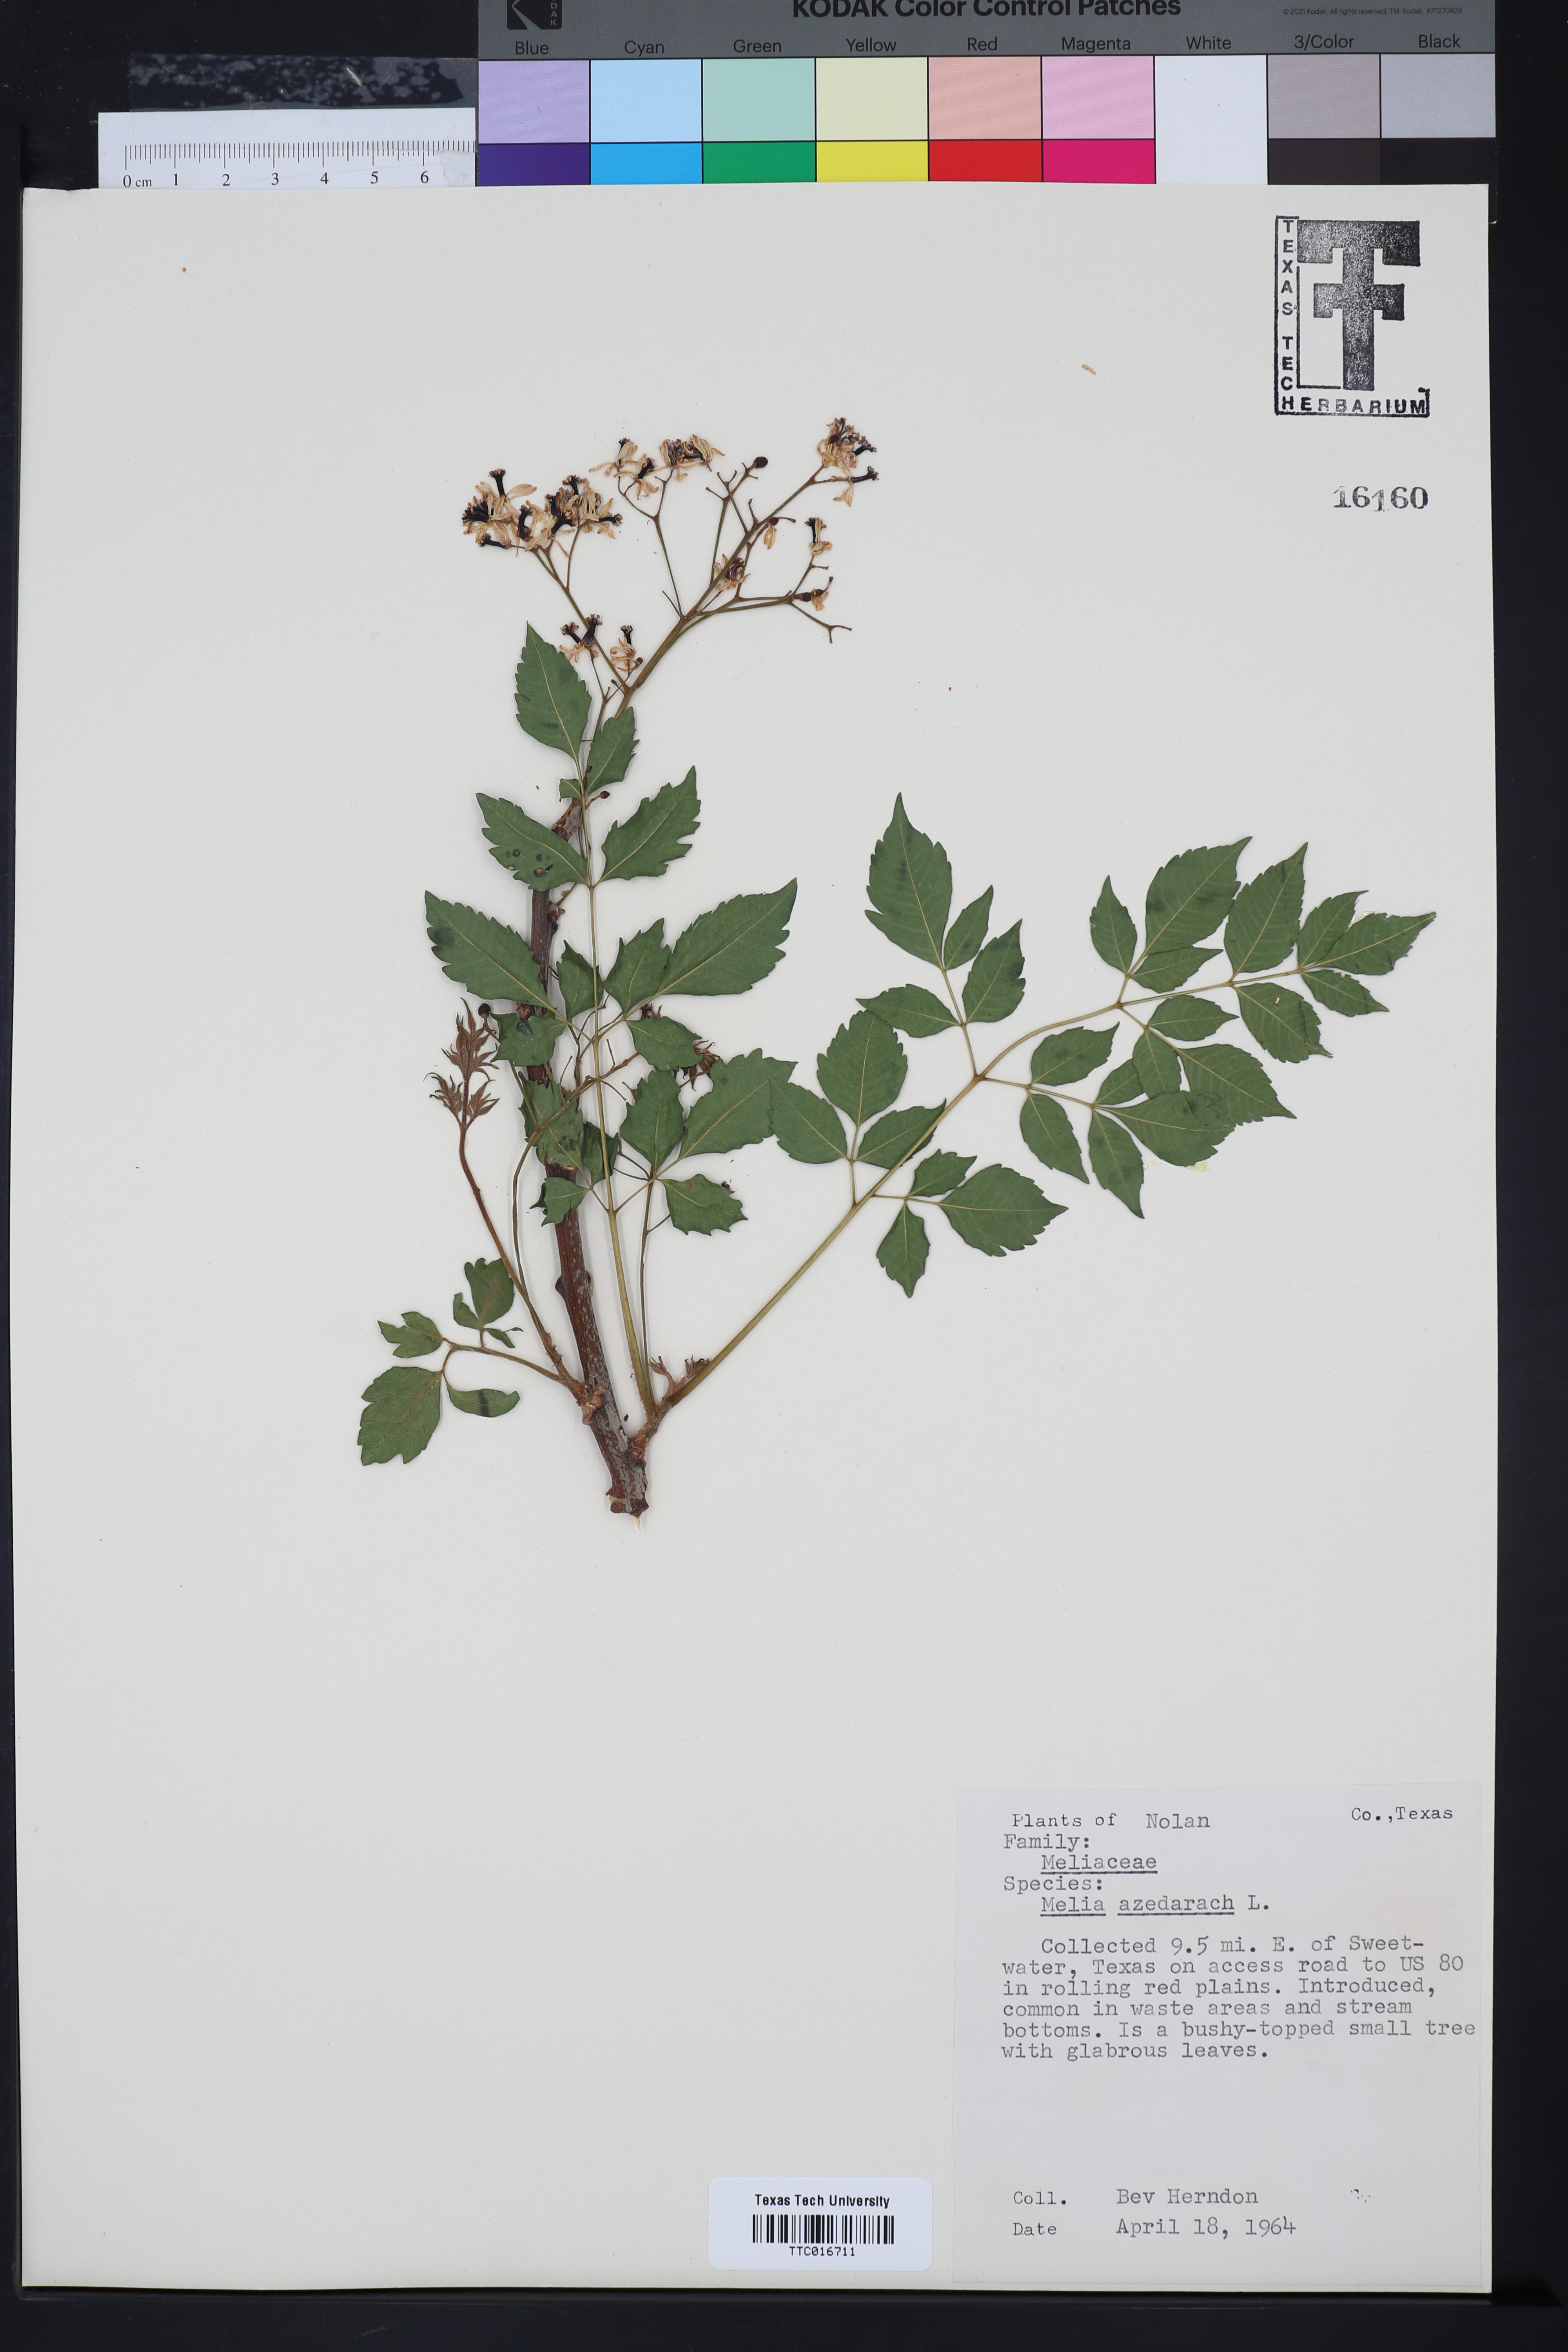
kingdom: Plantae
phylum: Tracheophyta
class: Magnoliopsida
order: Sapindales
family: Meliaceae
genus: Melia
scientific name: Melia azedarach
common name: Chinaberrytree
